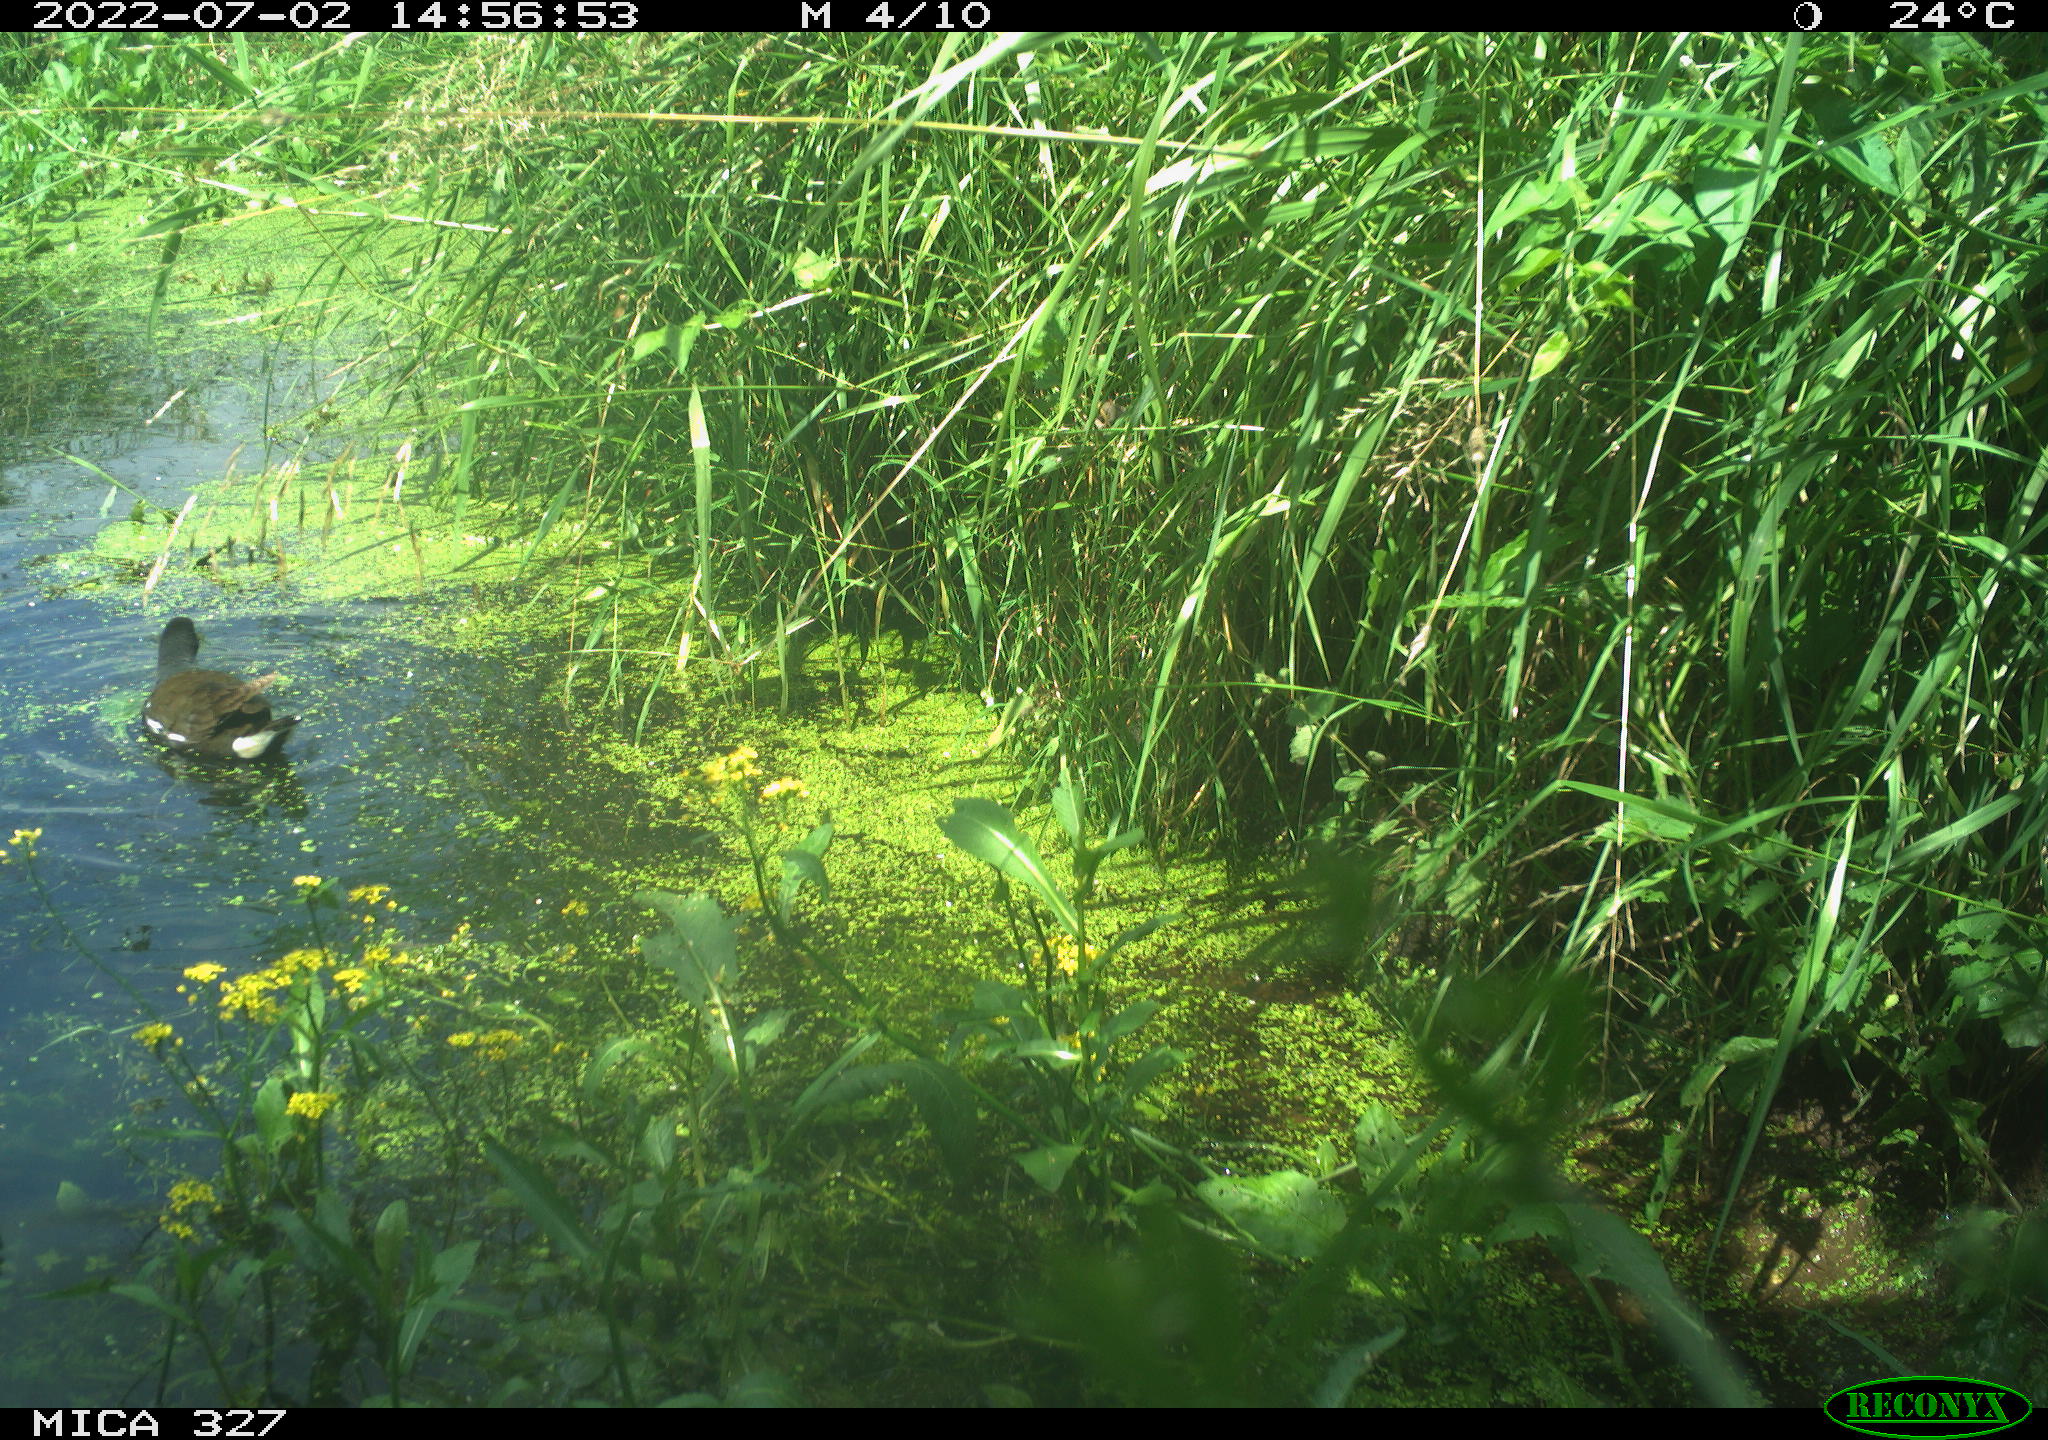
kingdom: Animalia
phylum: Chordata
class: Aves
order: Gruiformes
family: Rallidae
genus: Gallinula
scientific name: Gallinula chloropus
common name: Common moorhen
